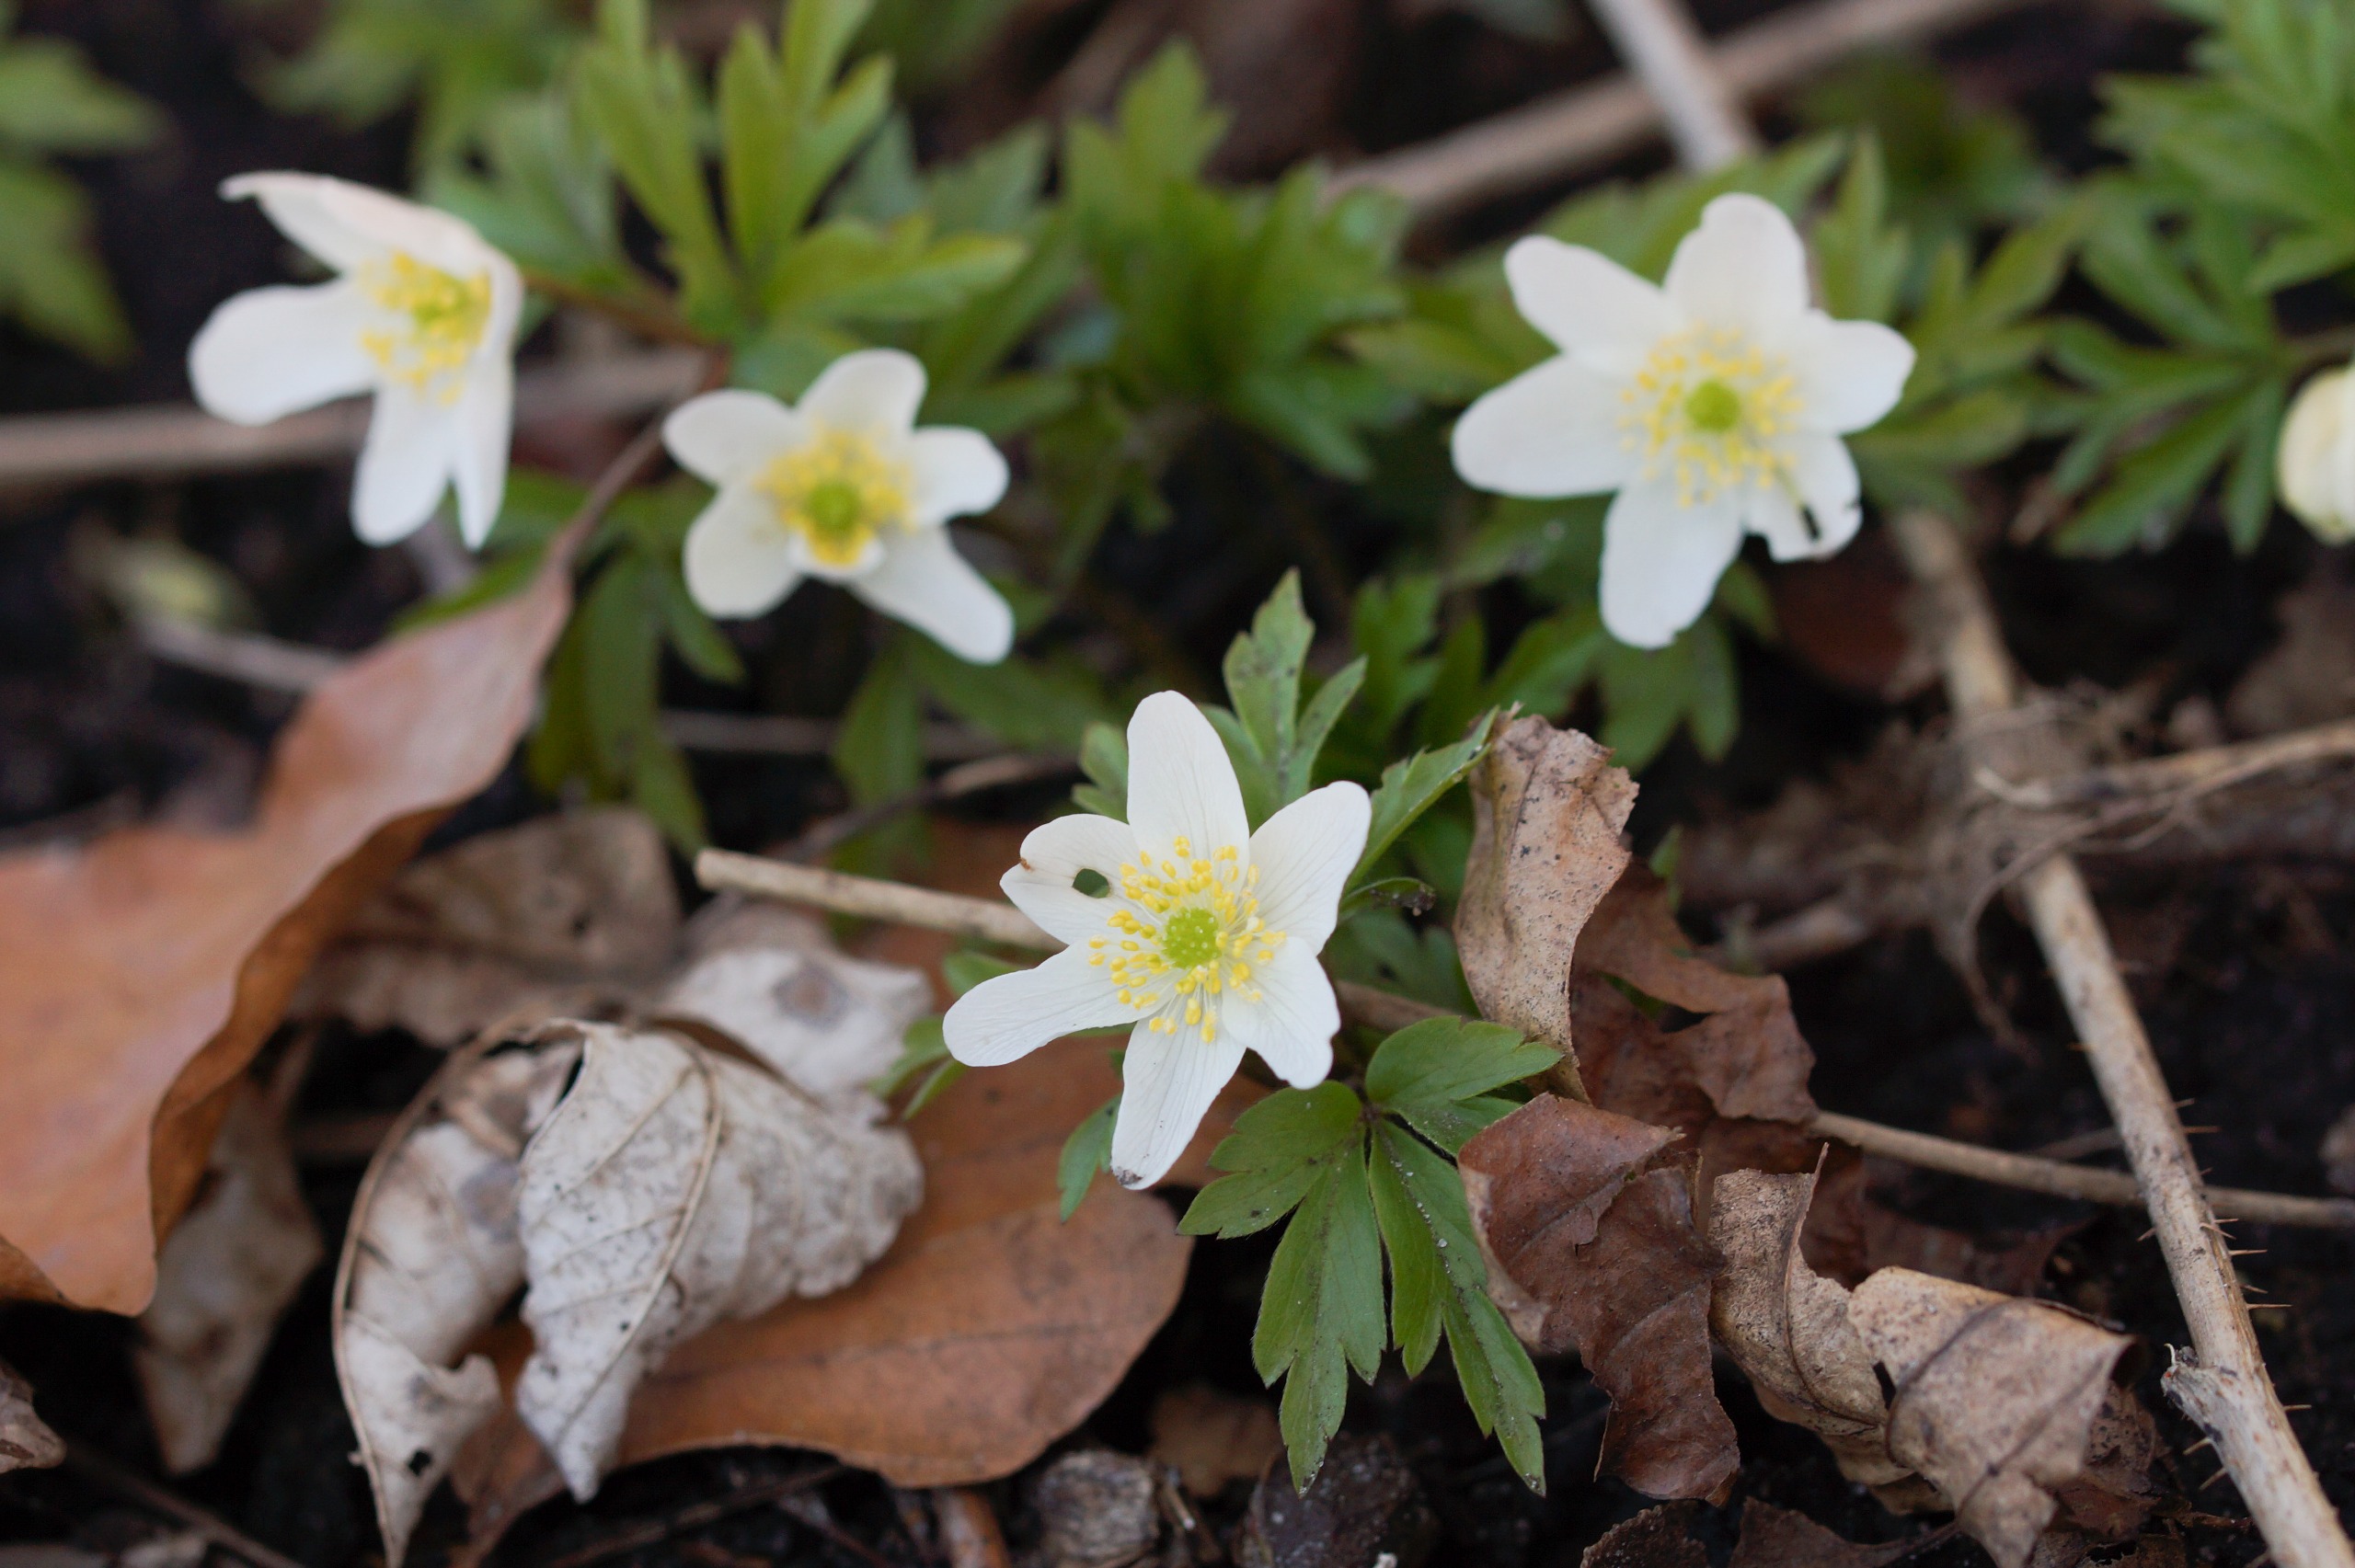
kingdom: Plantae
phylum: Tracheophyta
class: Magnoliopsida
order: Ranunculales
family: Ranunculaceae
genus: Anemone
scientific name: Anemone nemorosa
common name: Hvid anemone
